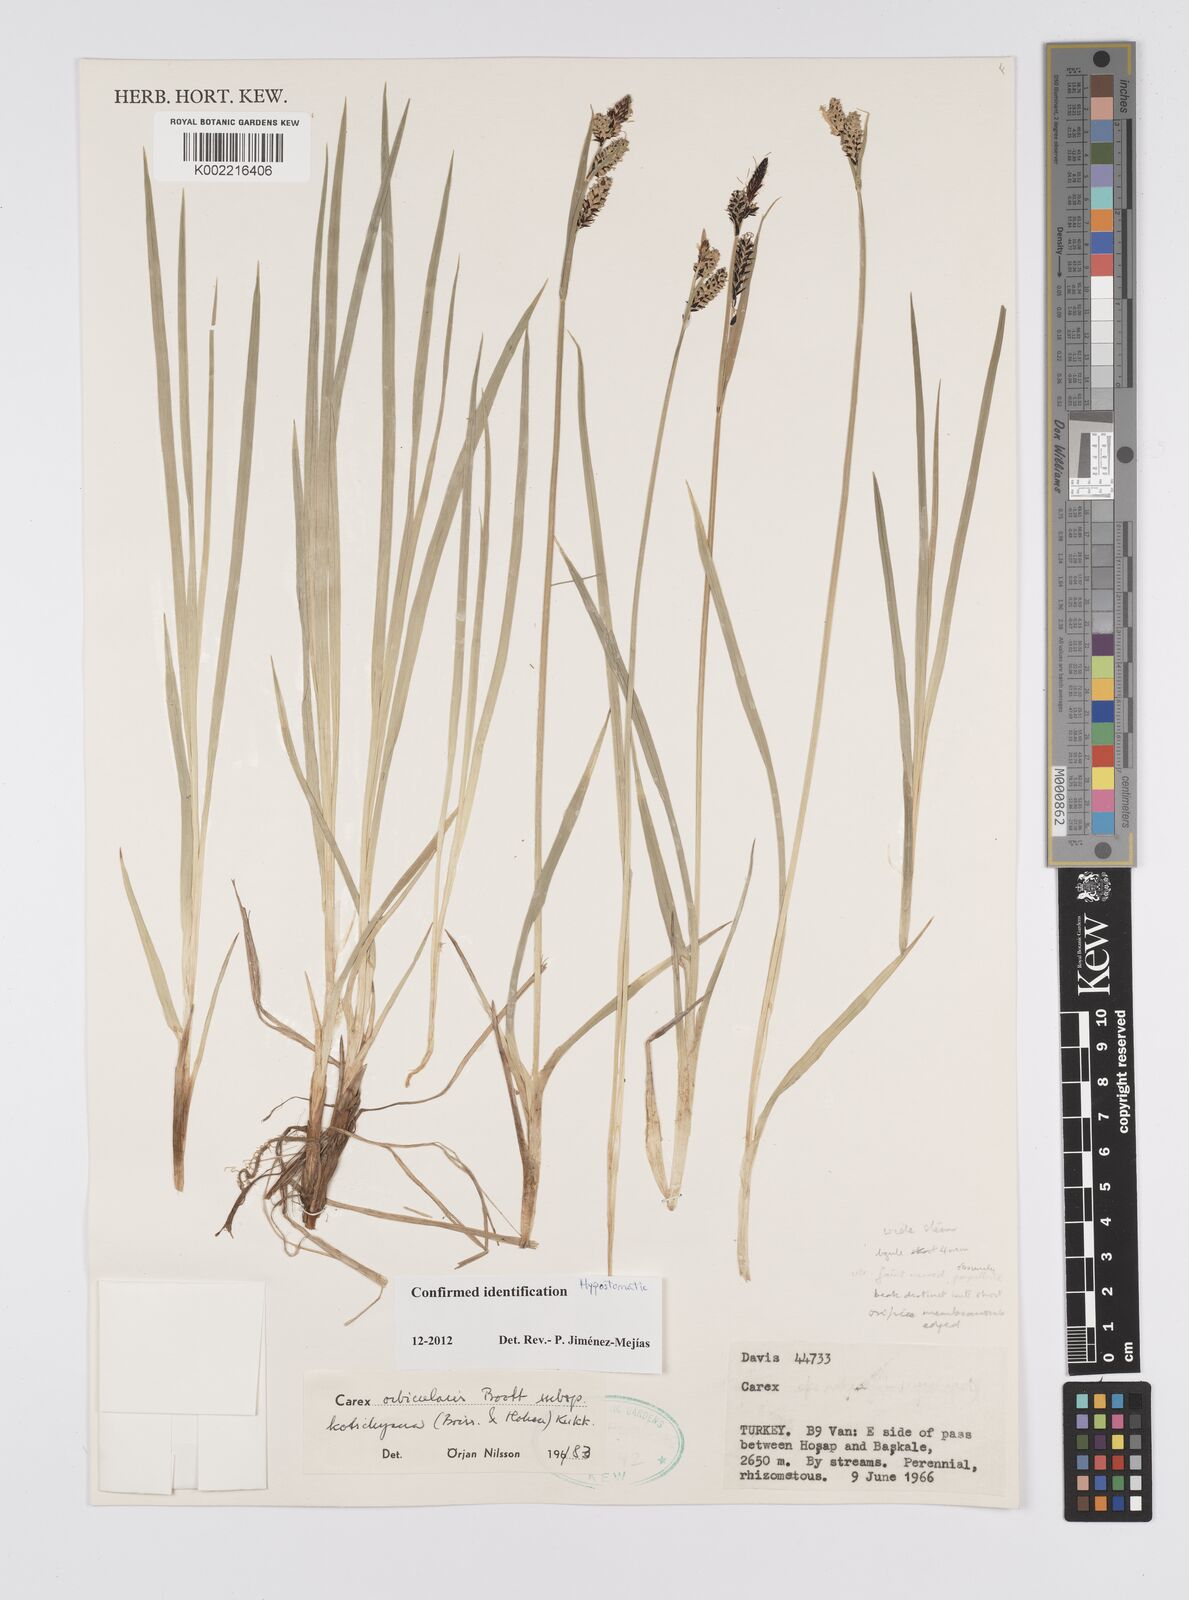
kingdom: Plantae
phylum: Tracheophyta
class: Liliopsida
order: Poales
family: Cyperaceae
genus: Carex
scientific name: Carex orbicularis
